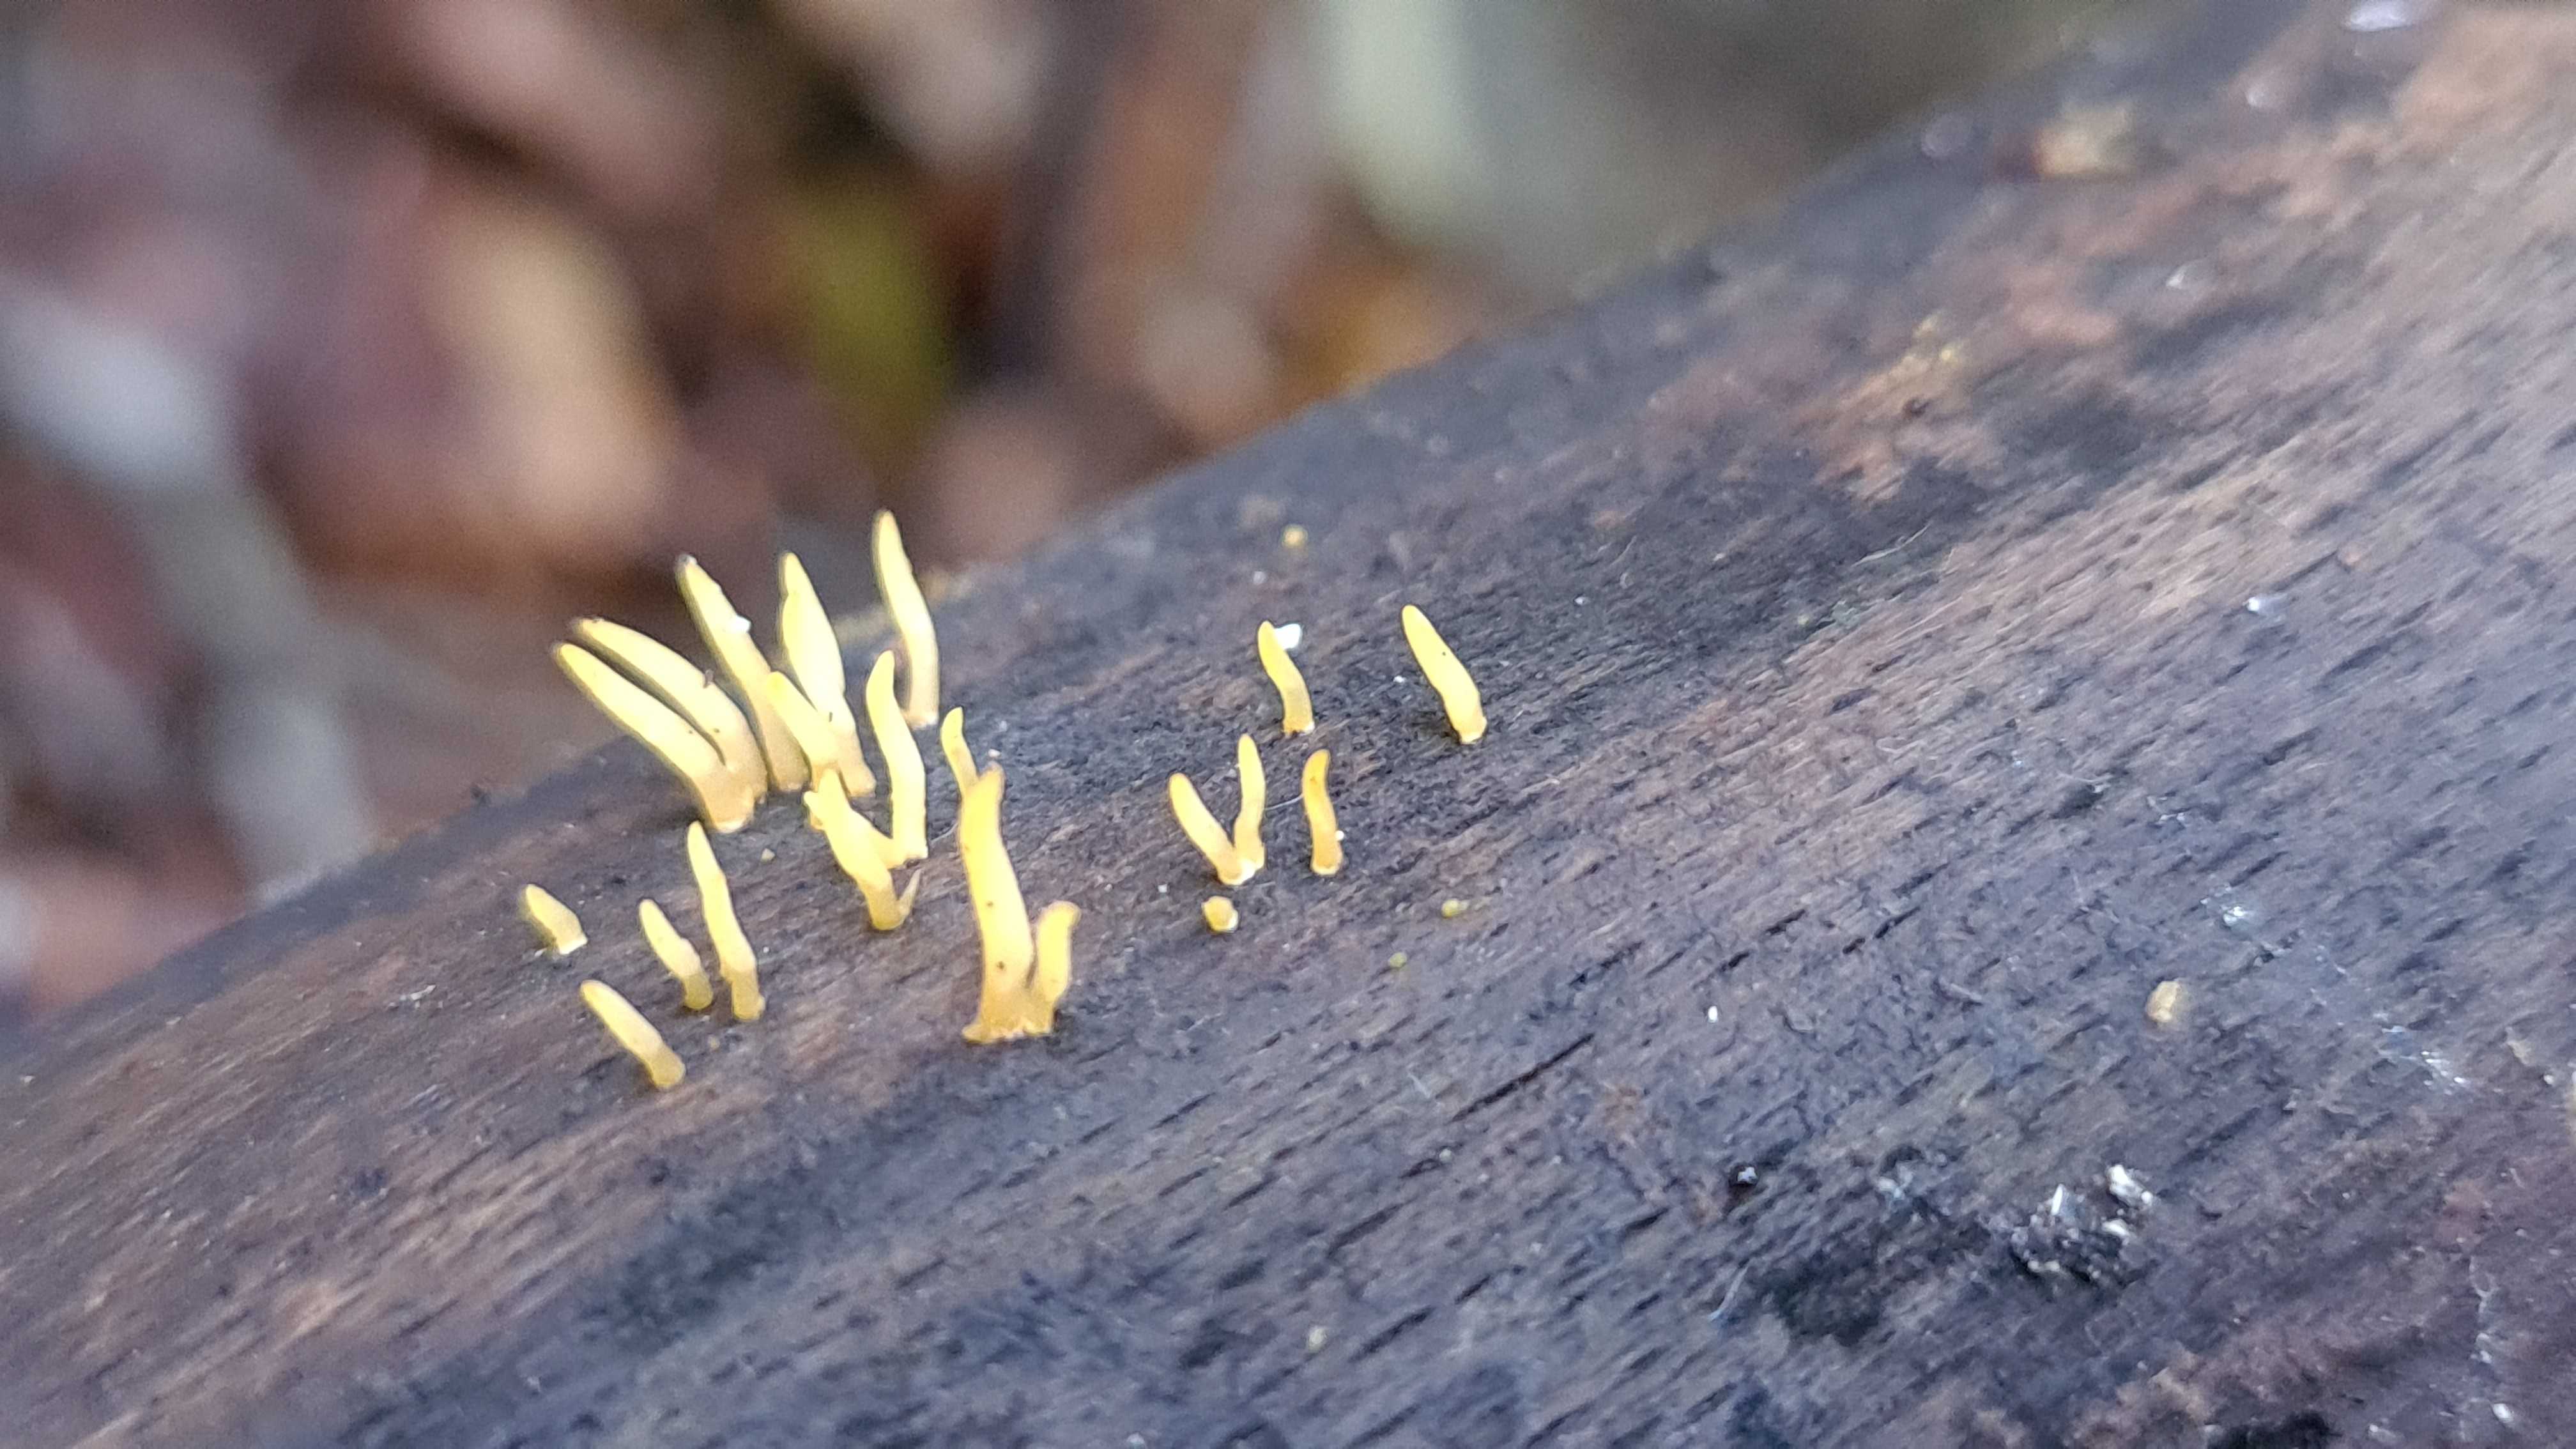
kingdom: Fungi
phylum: Basidiomycota
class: Dacrymycetes
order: Dacrymycetales
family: Dacrymycetaceae
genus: Calocera
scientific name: Calocera cornea
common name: liden guldgaffel
